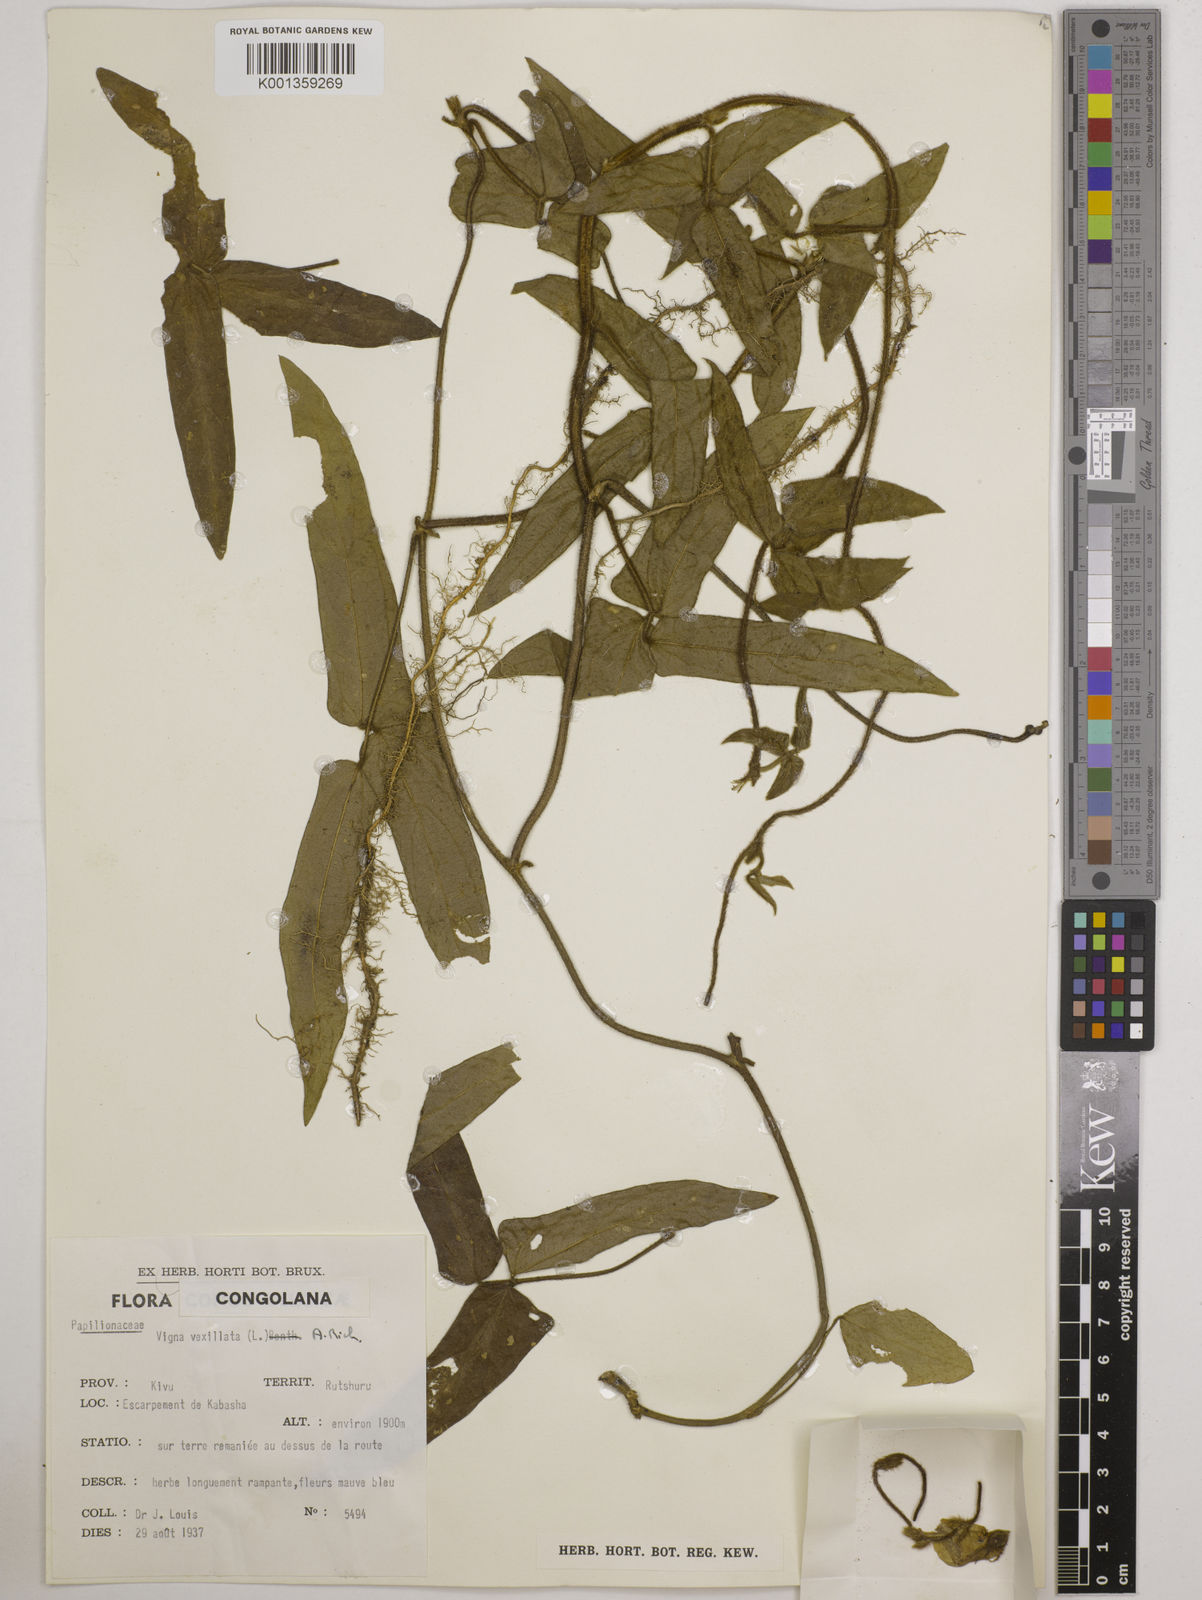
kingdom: Plantae
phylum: Tracheophyta
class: Magnoliopsida
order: Fabales
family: Fabaceae
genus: Vigna
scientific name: Vigna vexillata
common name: Zombi pea
